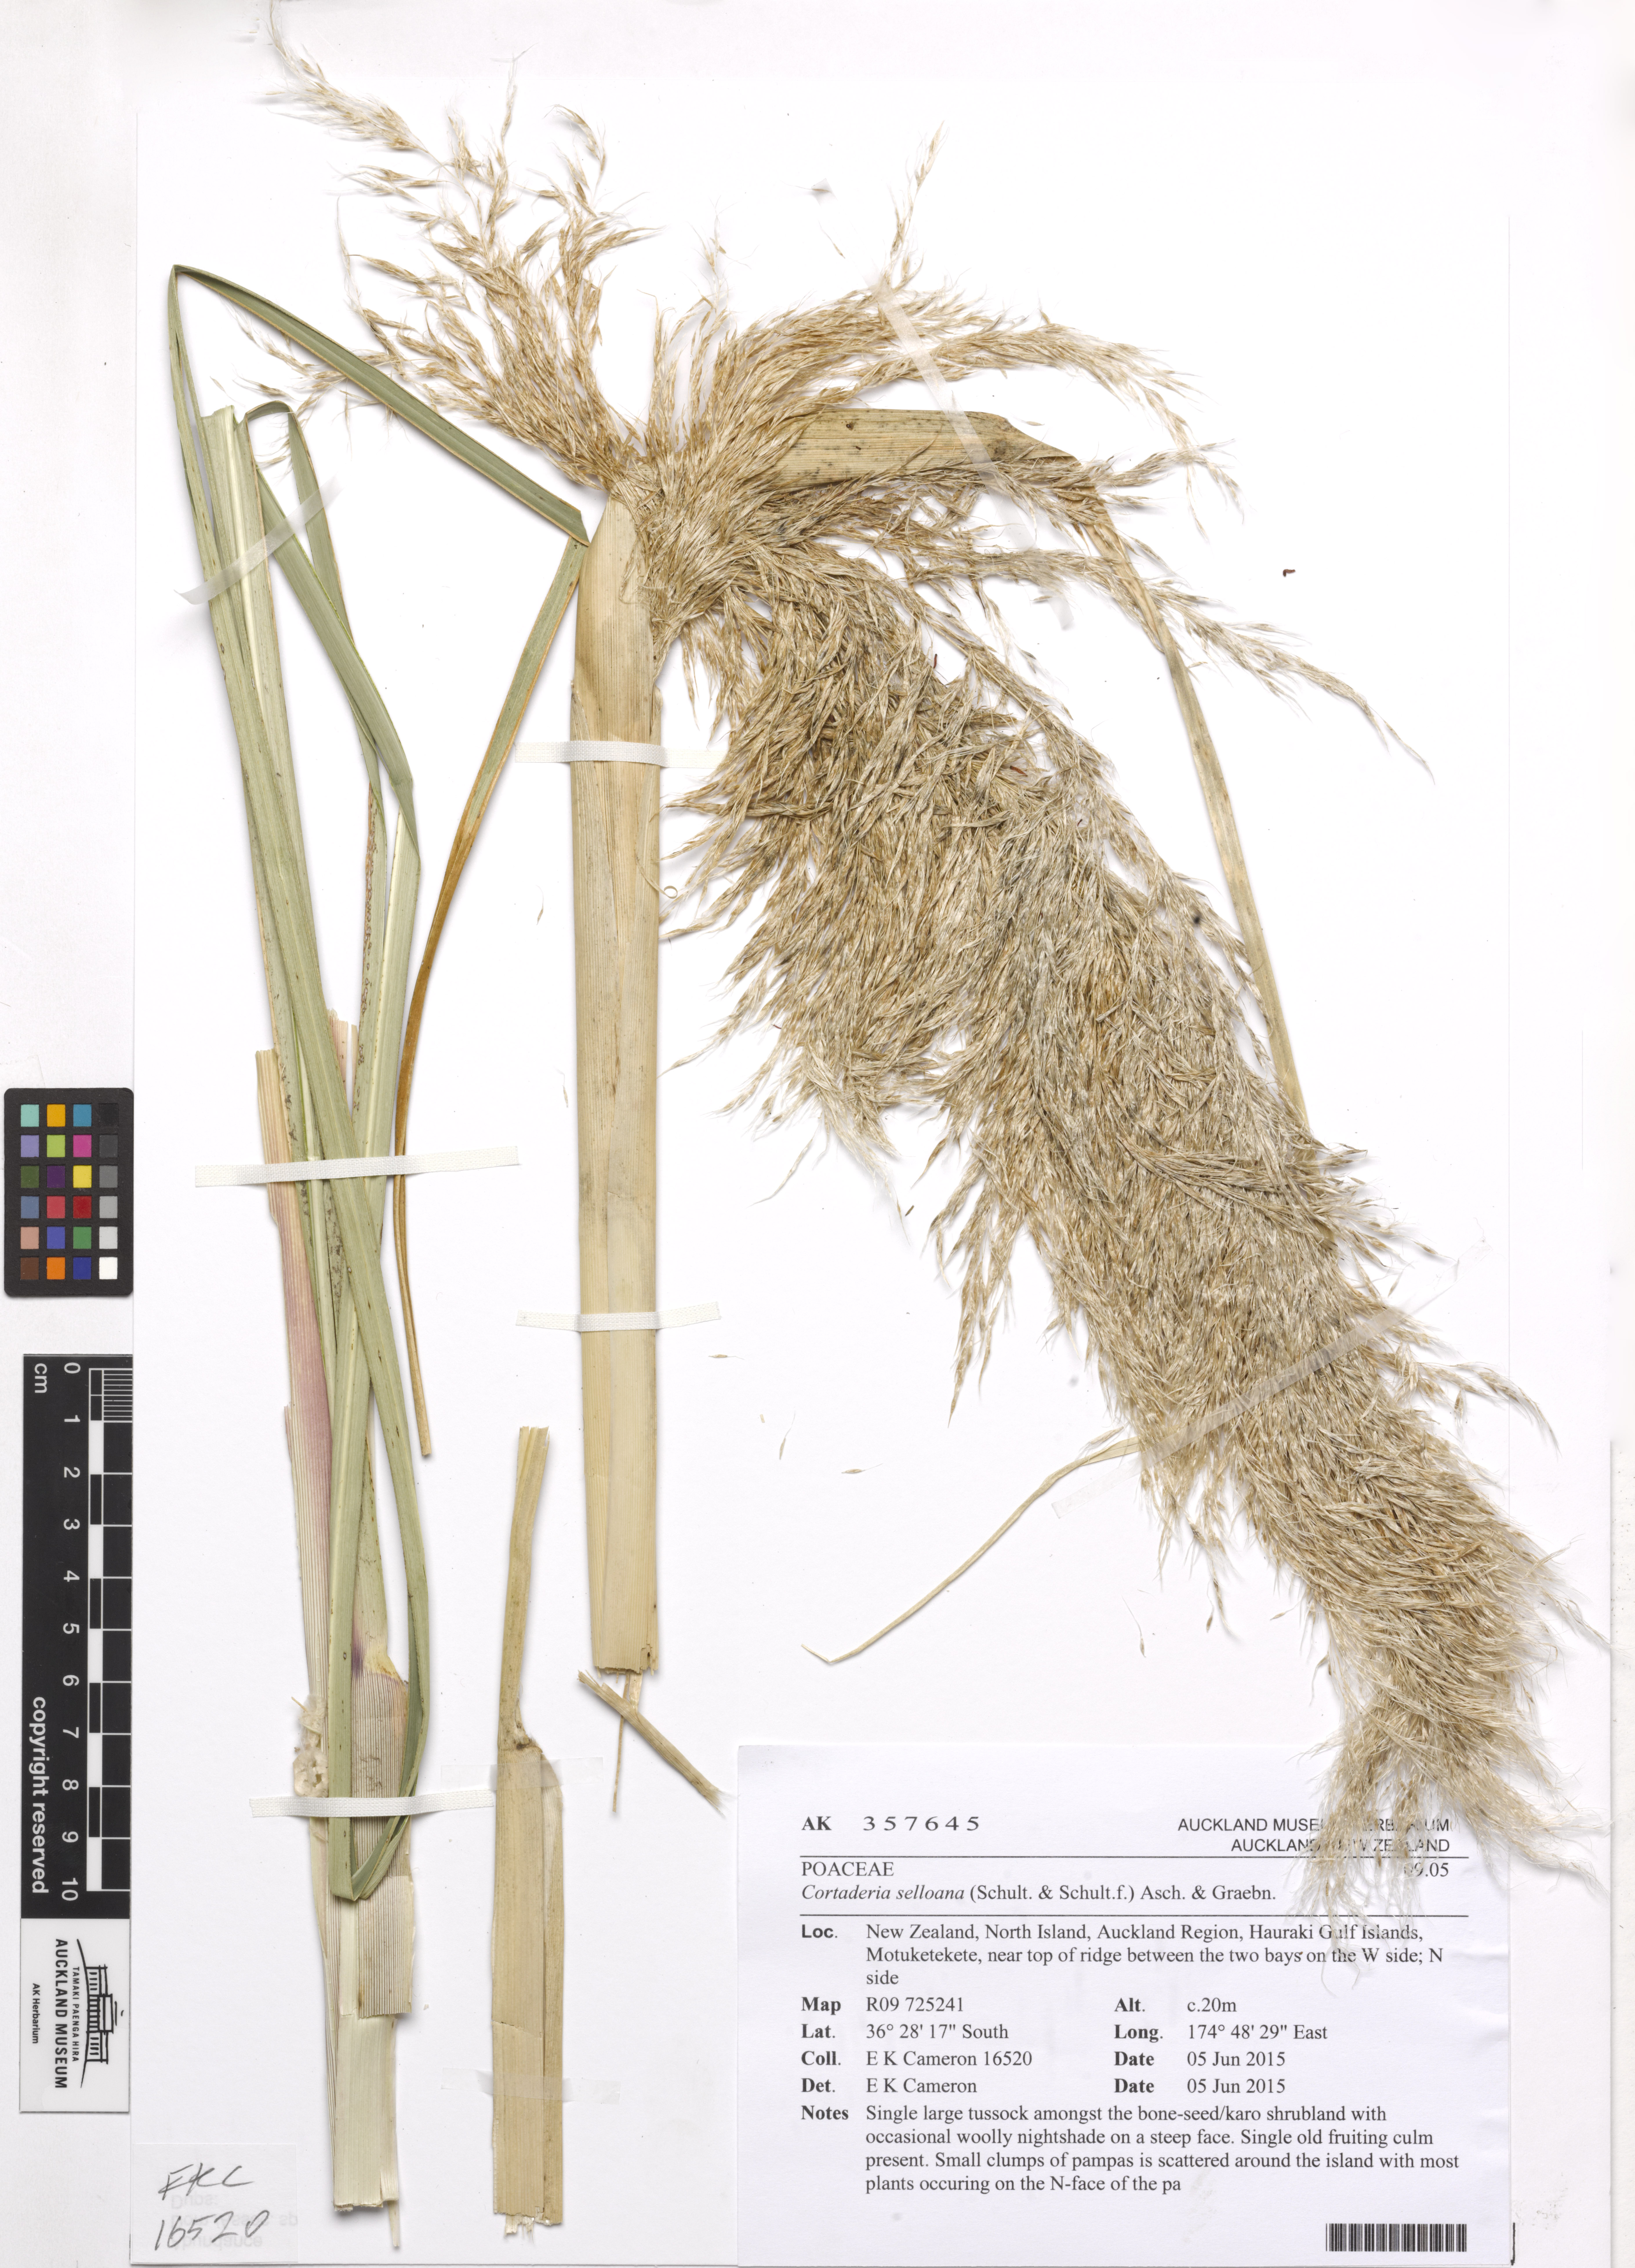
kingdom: Plantae
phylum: Tracheophyta
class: Liliopsida
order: Poales
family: Poaceae
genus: Cortaderia
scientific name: Cortaderia selloana
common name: Uruguayan pampas grass
